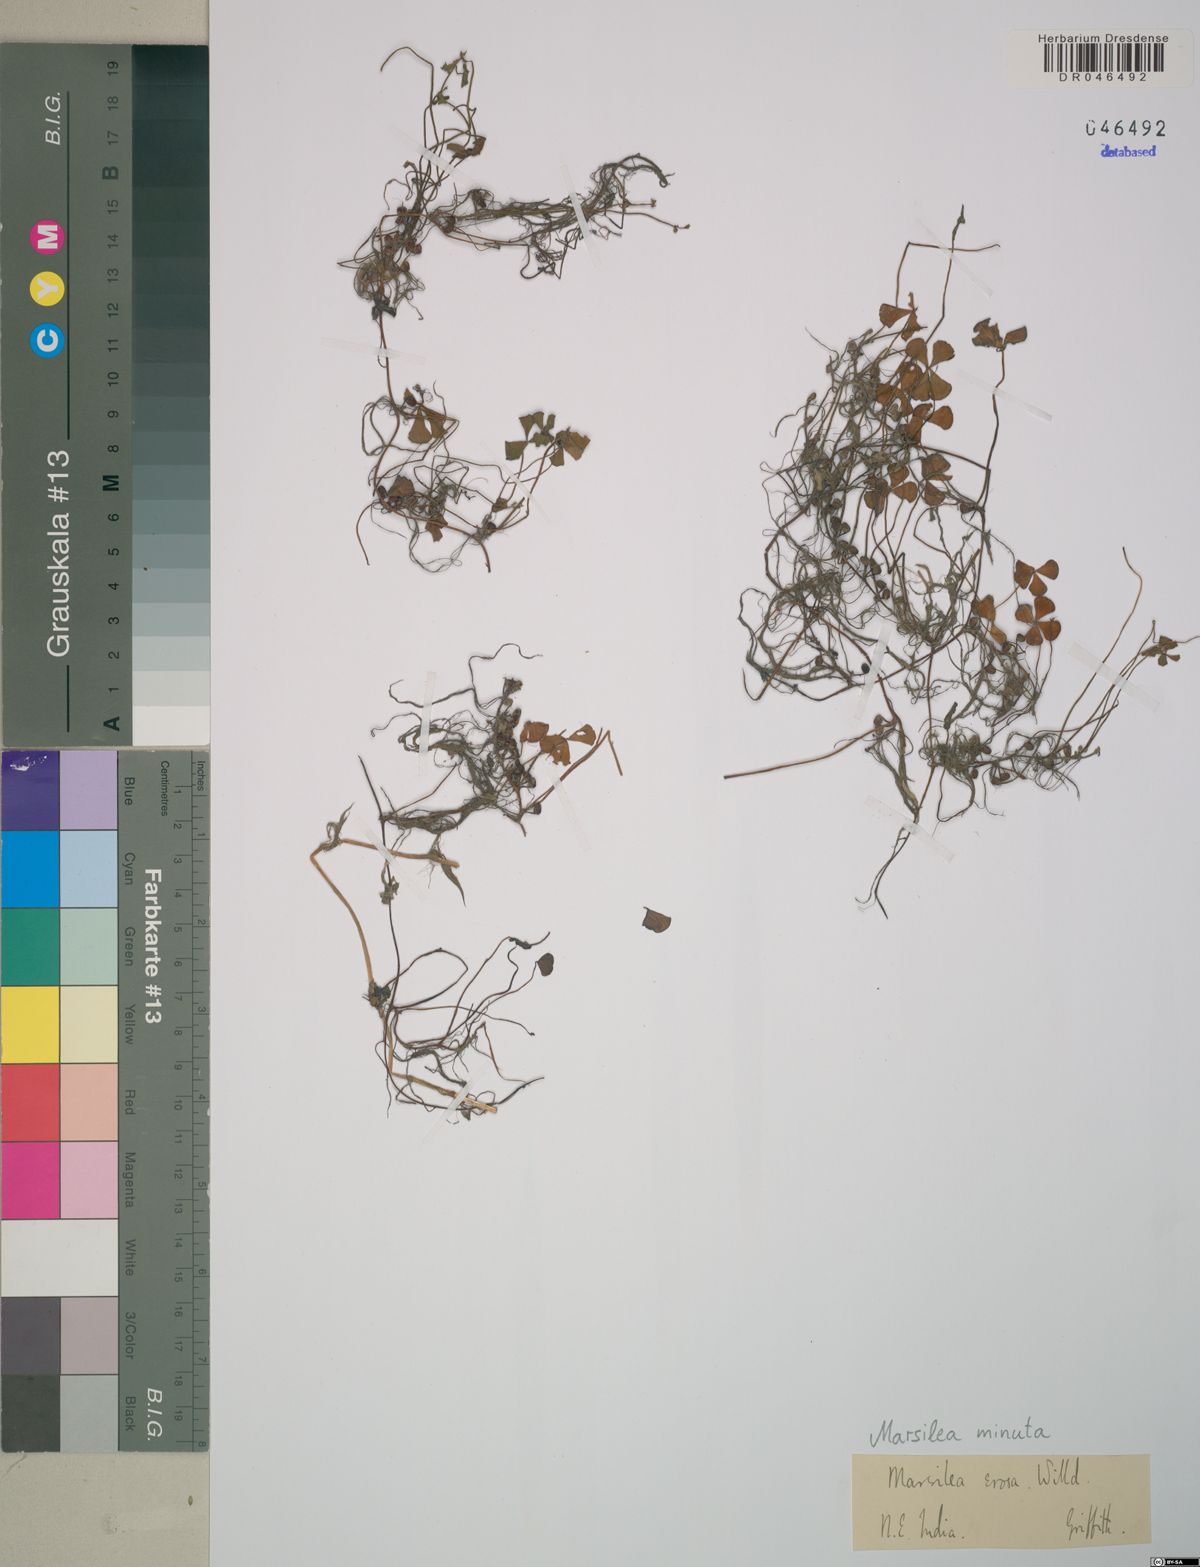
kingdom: Plantae
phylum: Tracheophyta
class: Polypodiopsida
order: Salviniales
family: Marsileaceae
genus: Marsilea
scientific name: Marsilea minuta
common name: Dwarf waterclover
